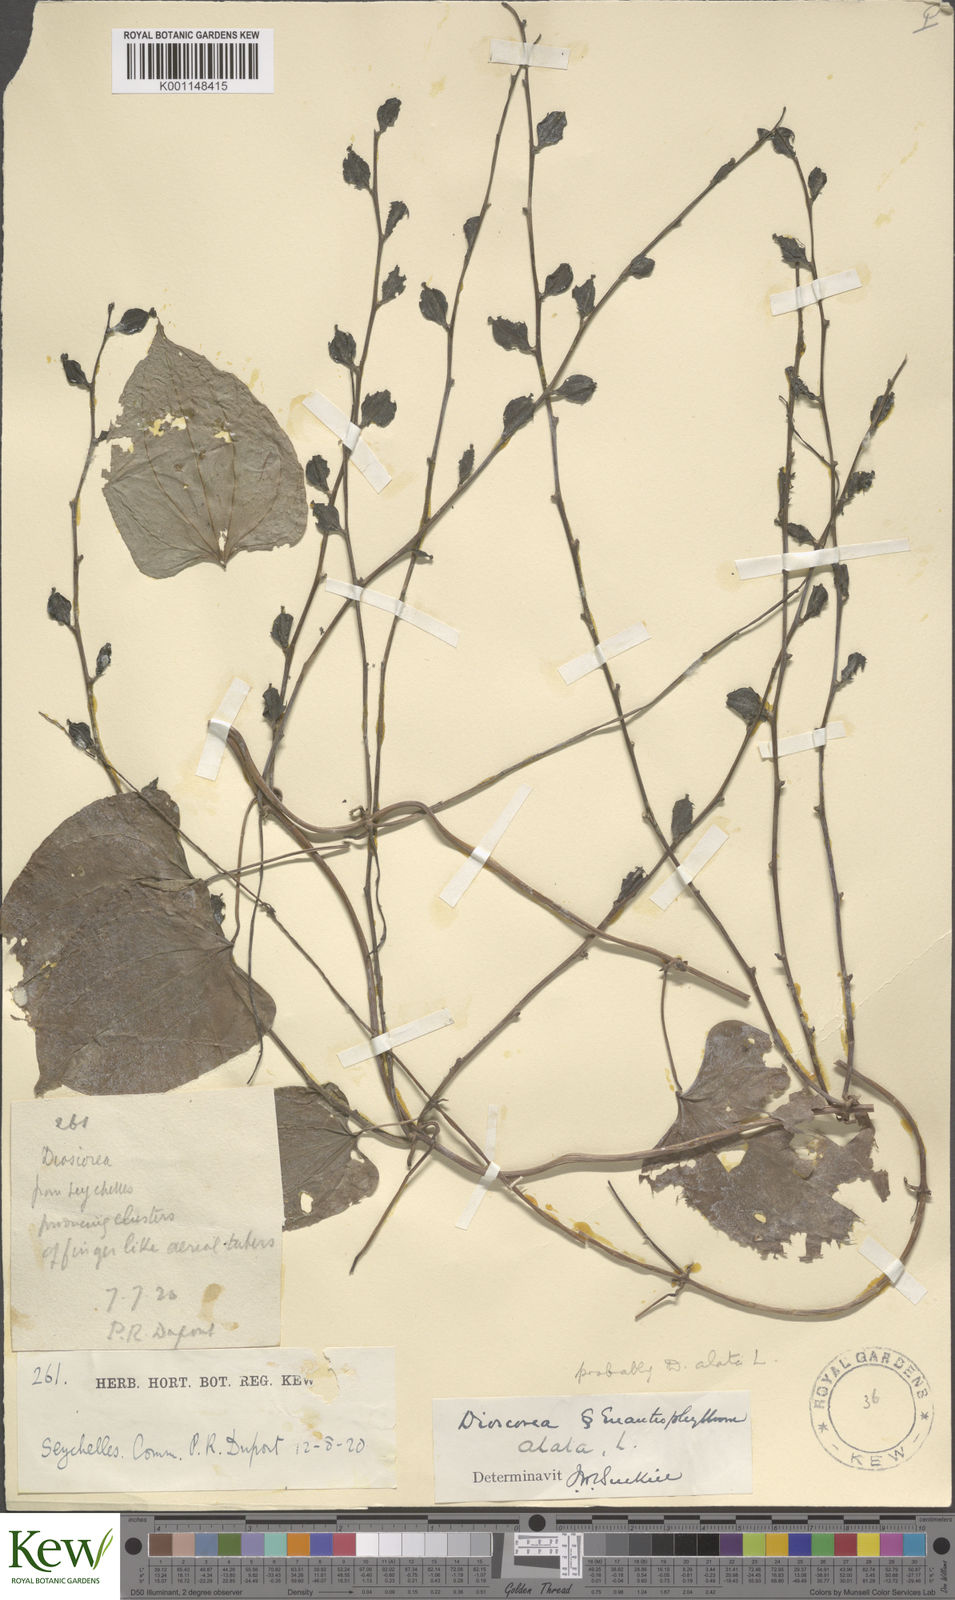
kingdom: Plantae
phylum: Tracheophyta
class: Liliopsida
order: Dioscoreales
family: Dioscoreaceae
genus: Dioscorea
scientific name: Dioscorea alata
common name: Water yam
